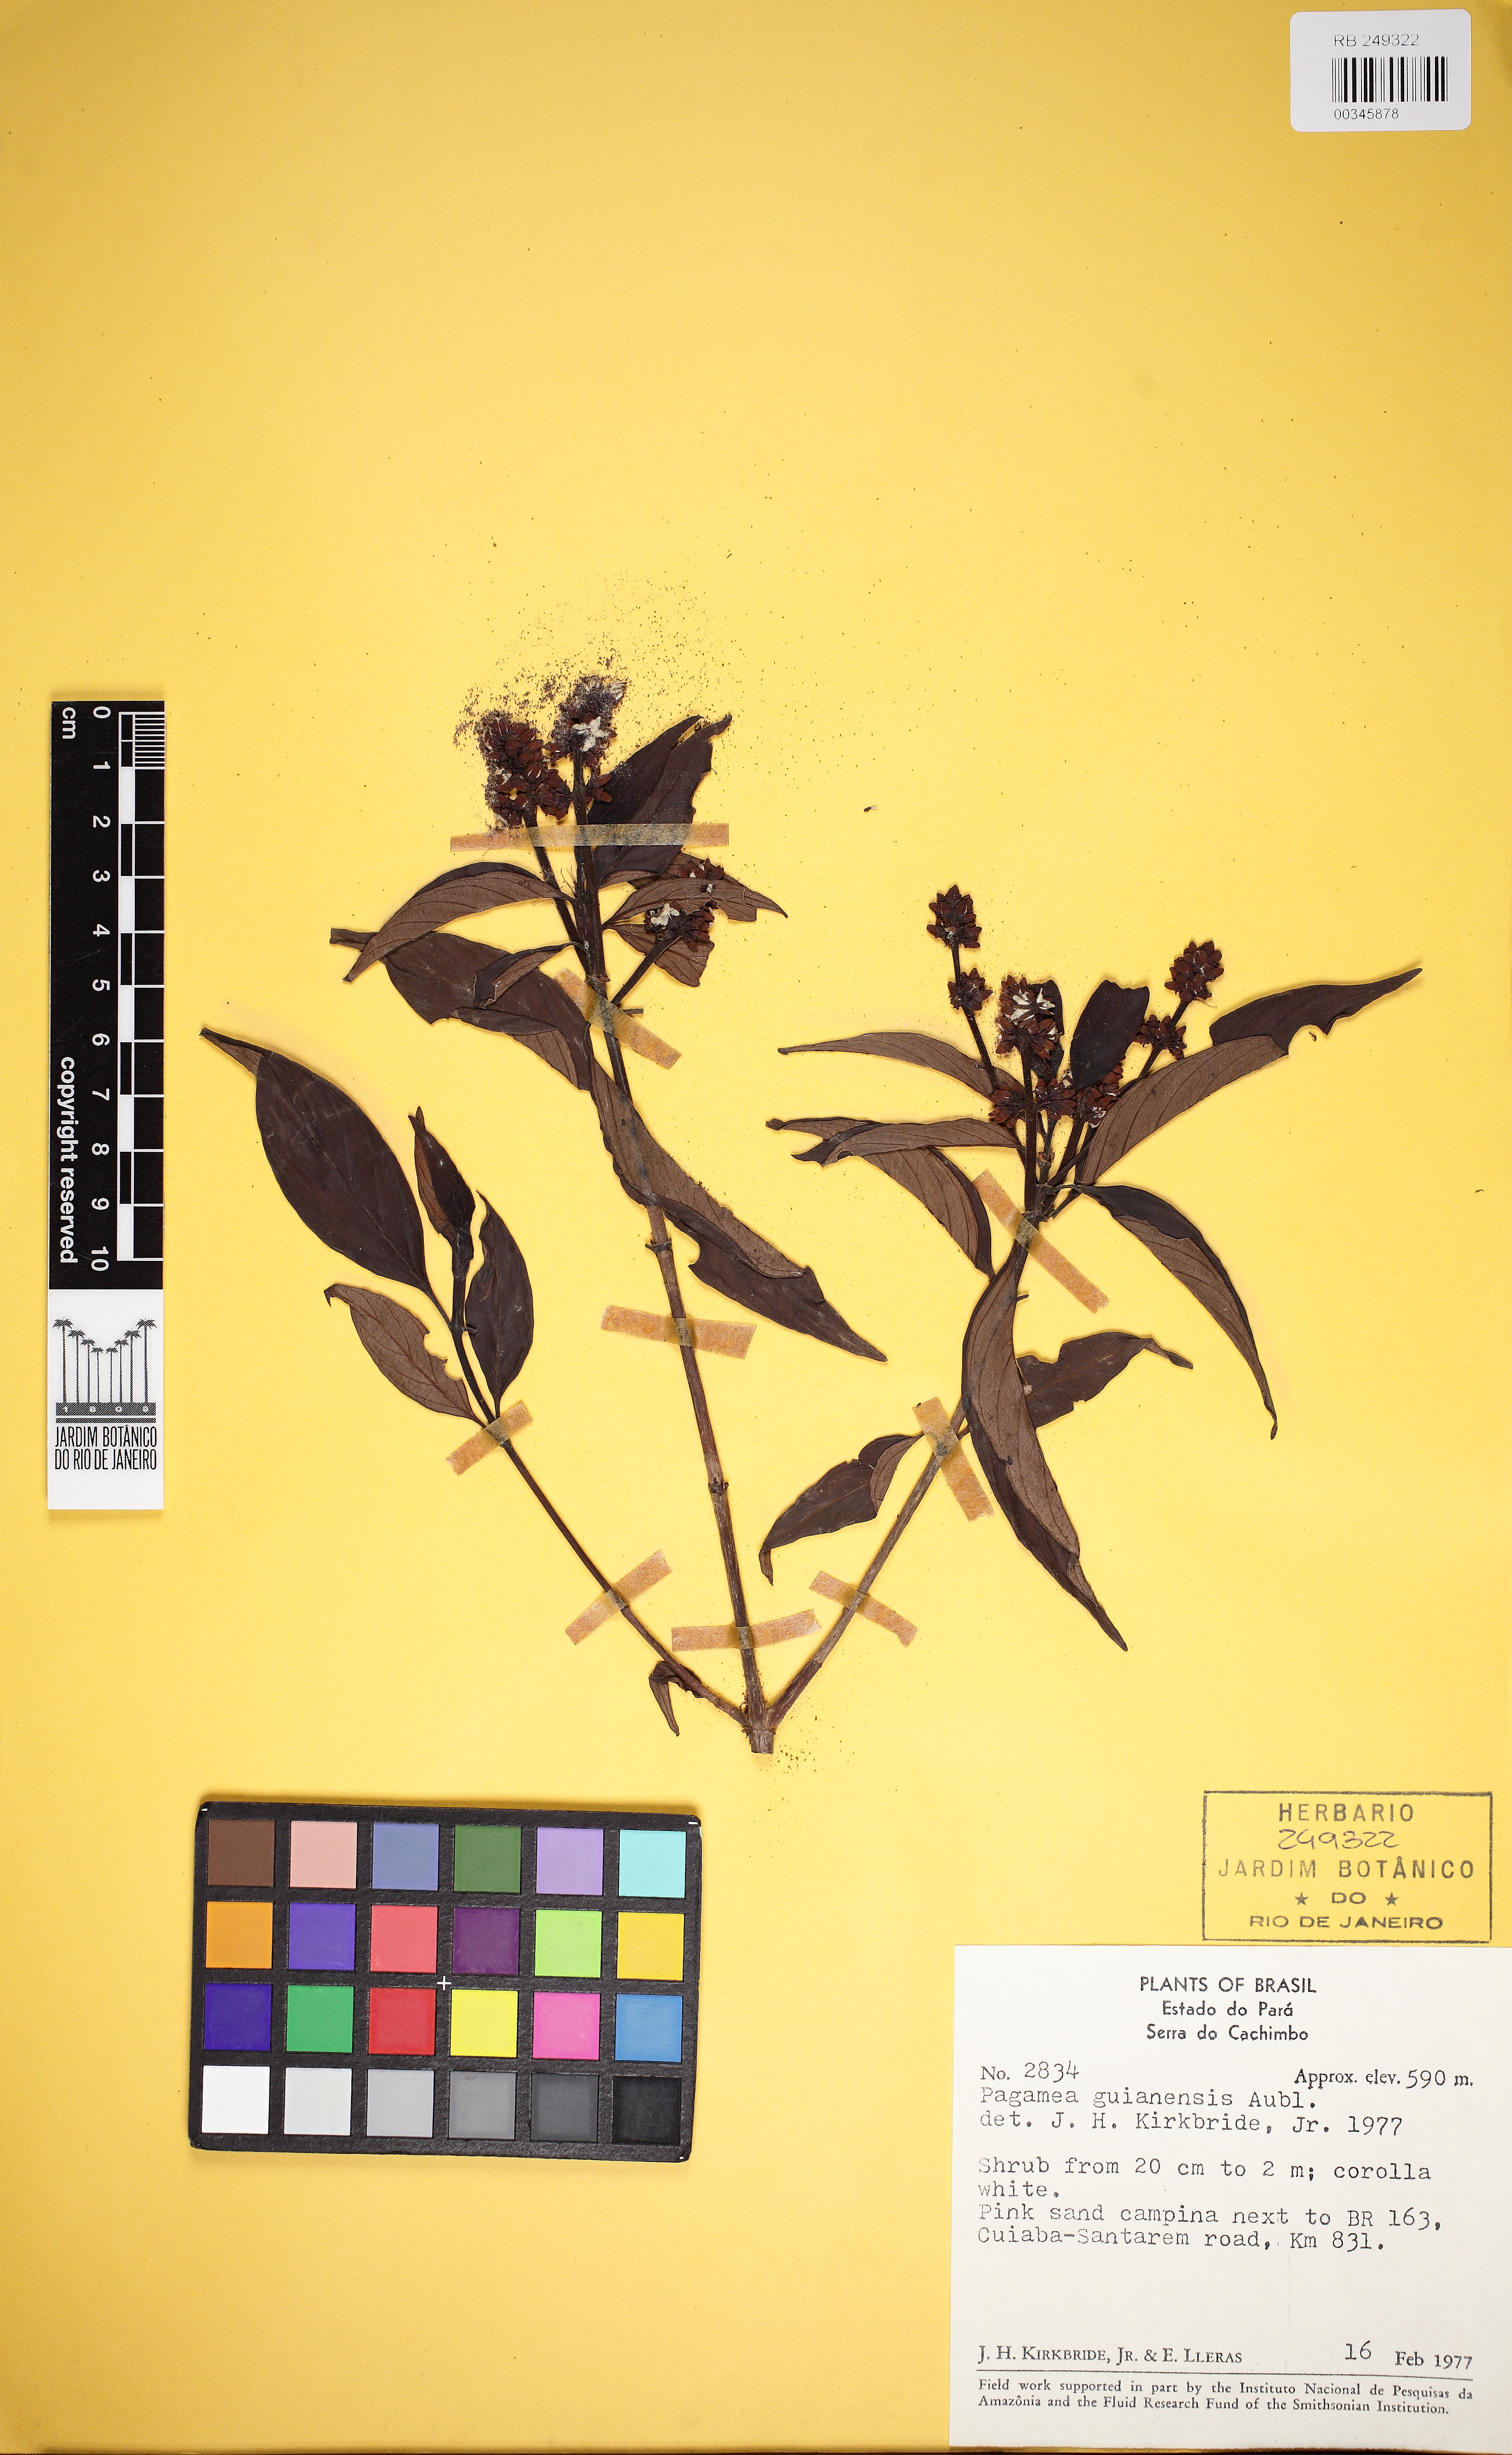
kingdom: Plantae
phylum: Tracheophyta
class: Magnoliopsida
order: Gentianales
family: Rubiaceae
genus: Pagamea
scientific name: Pagamea guianensis
